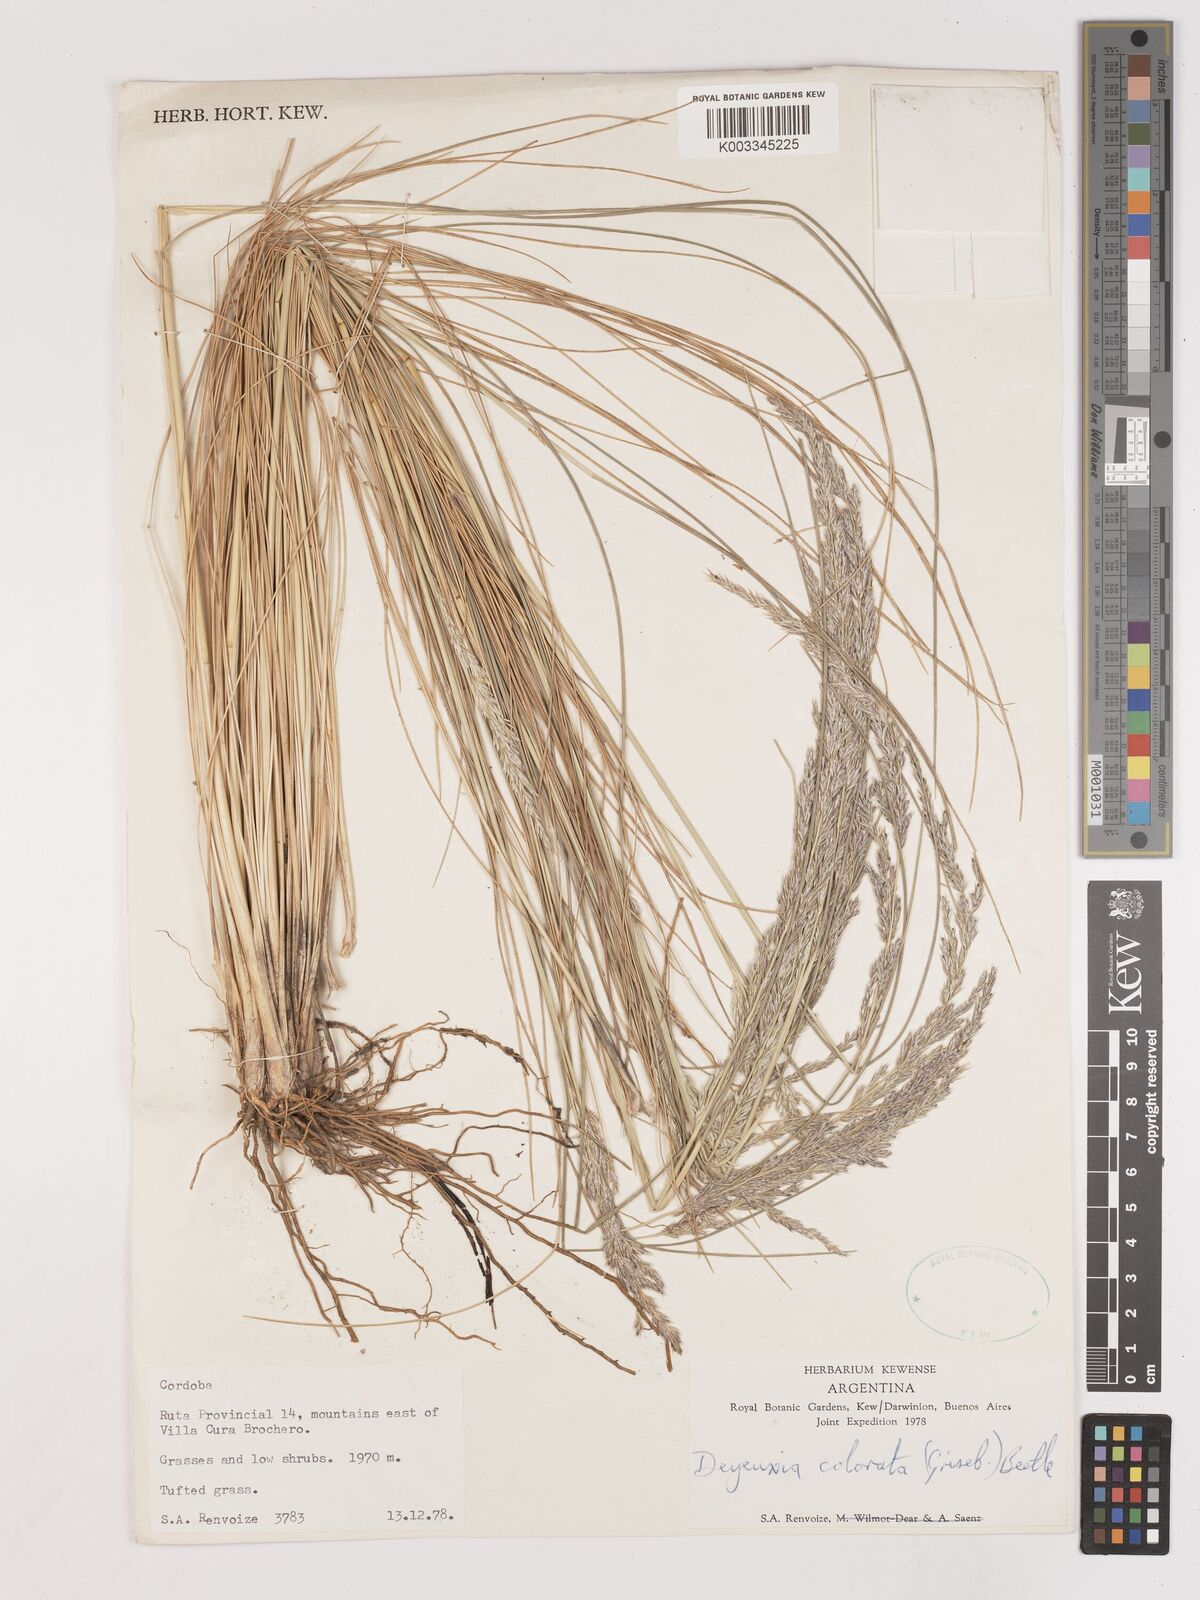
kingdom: Plantae
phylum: Tracheophyta
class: Liliopsida
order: Poales
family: Poaceae
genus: Calamagrostis
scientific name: Calamagrostis borii
